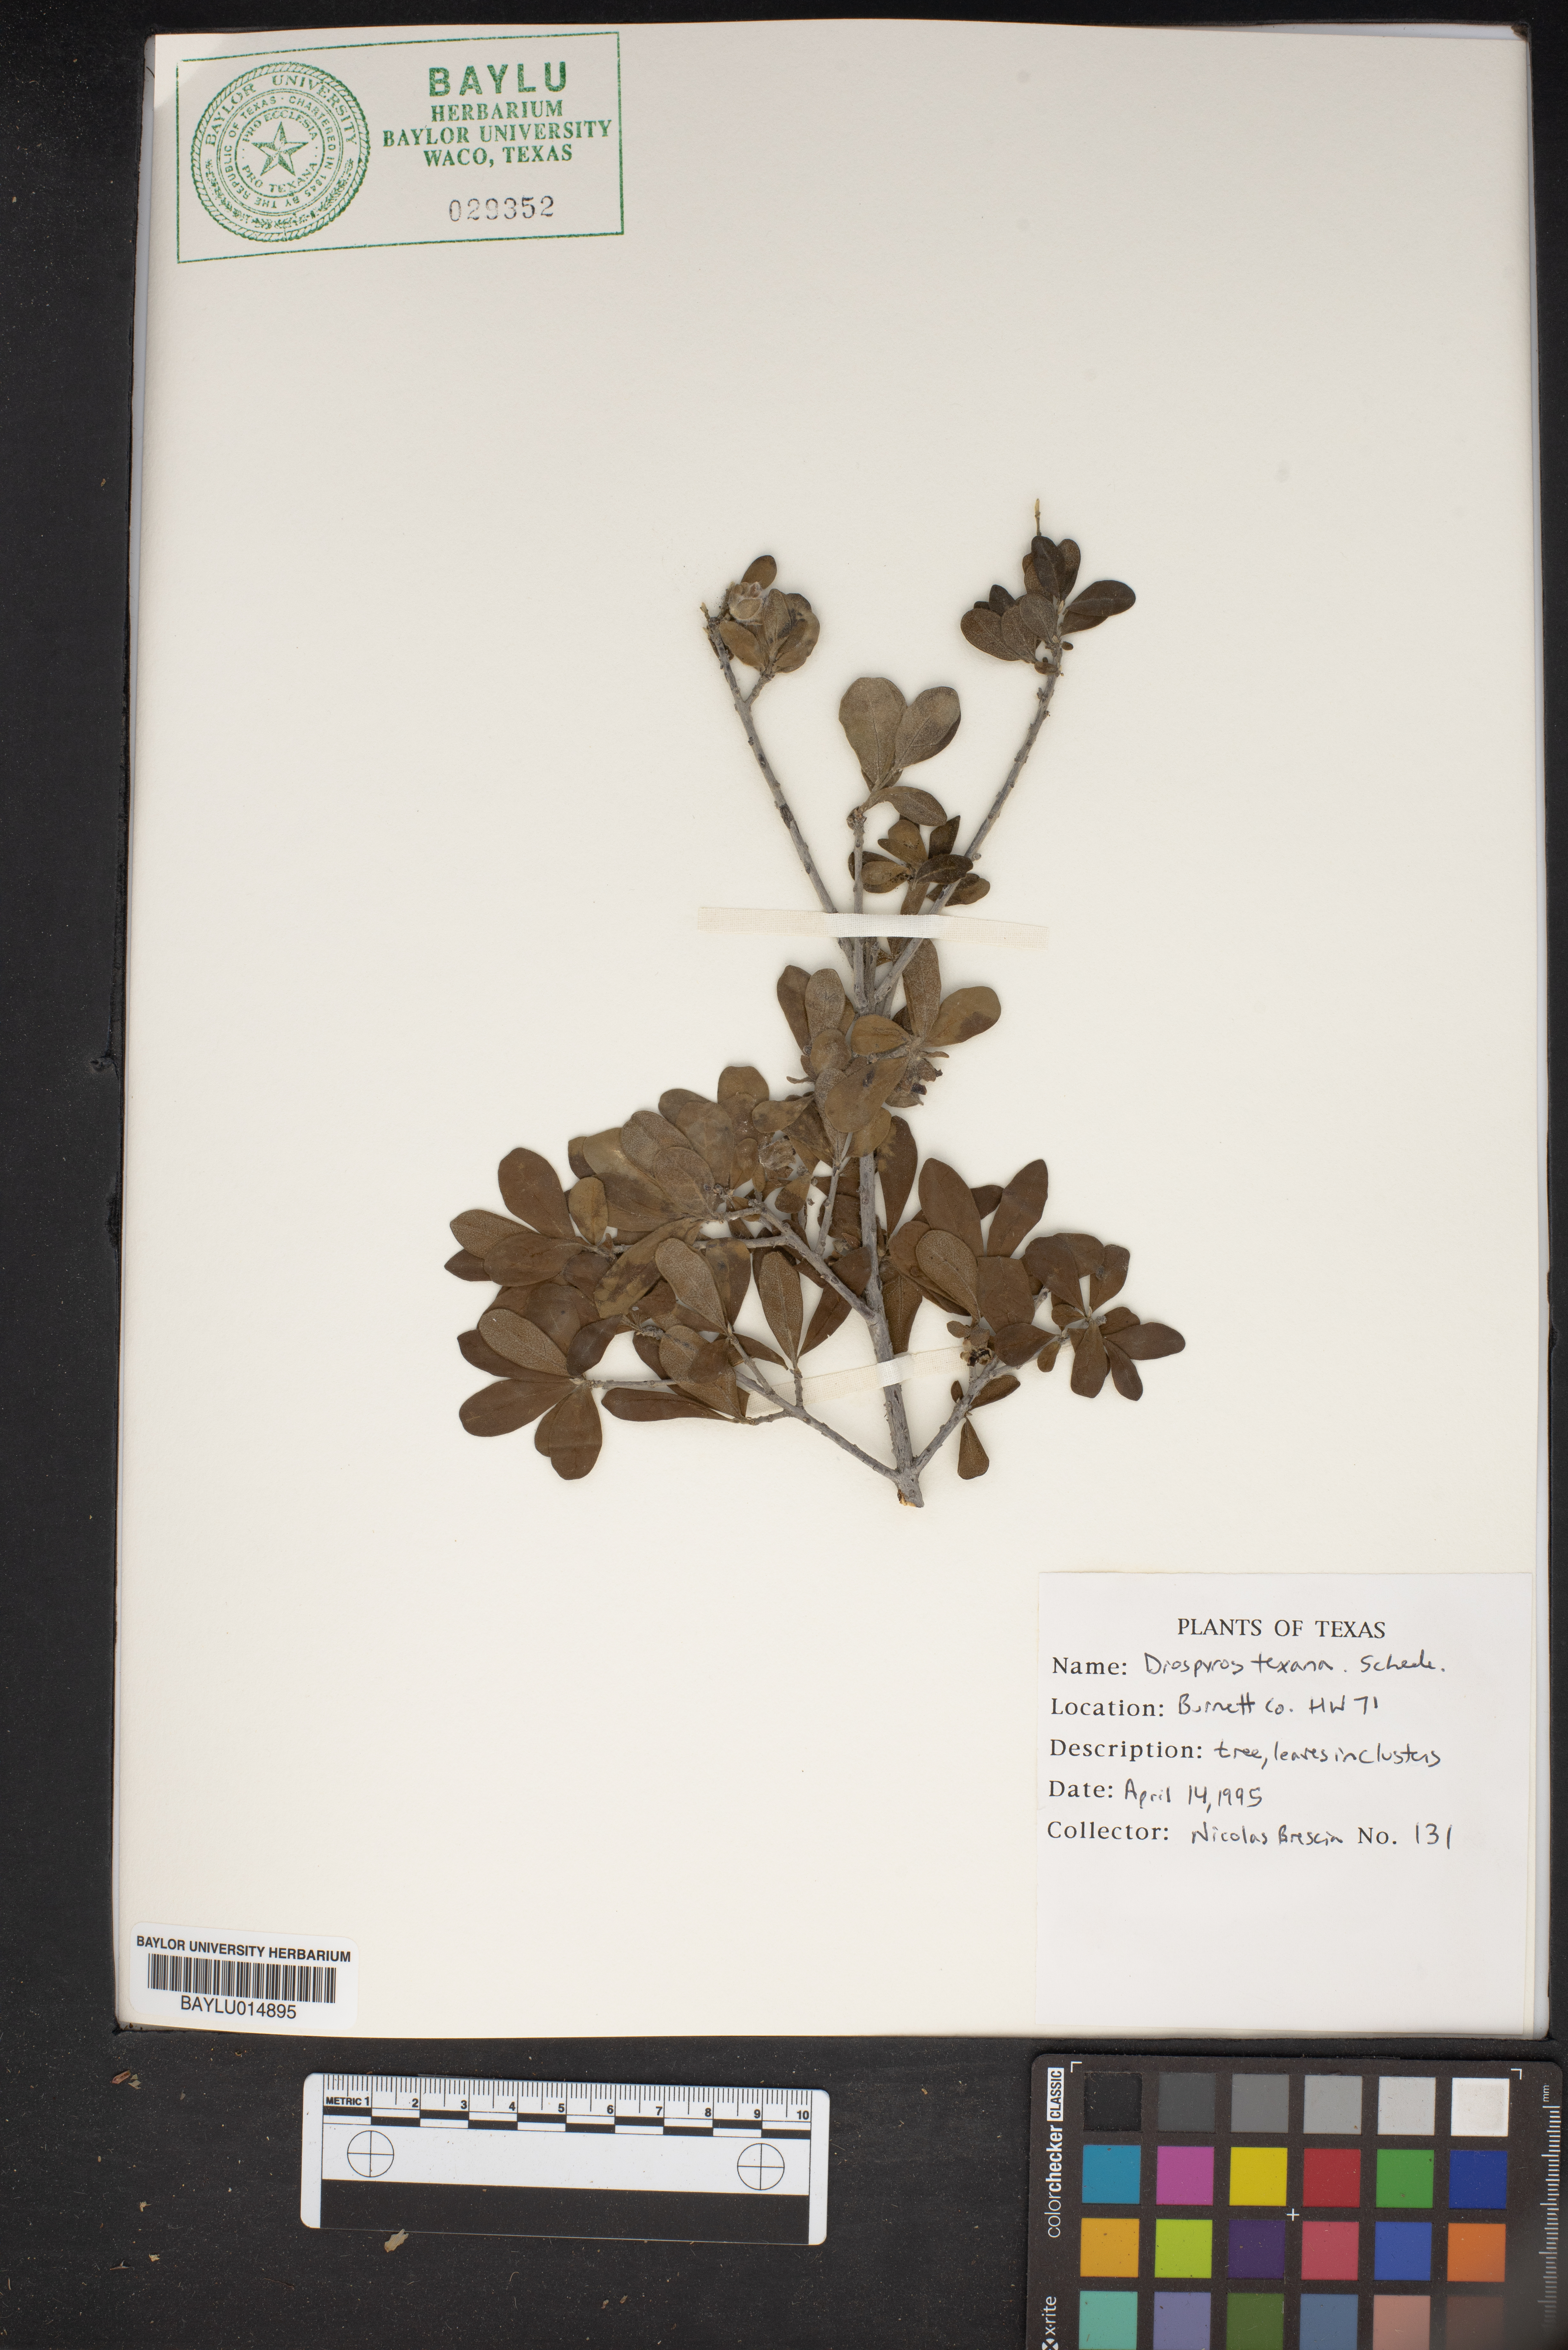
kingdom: Plantae
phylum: Tracheophyta
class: Magnoliopsida
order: Ericales
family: Ebenaceae
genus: Diospyros
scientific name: Diospyros texana
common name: Texas persimmon
